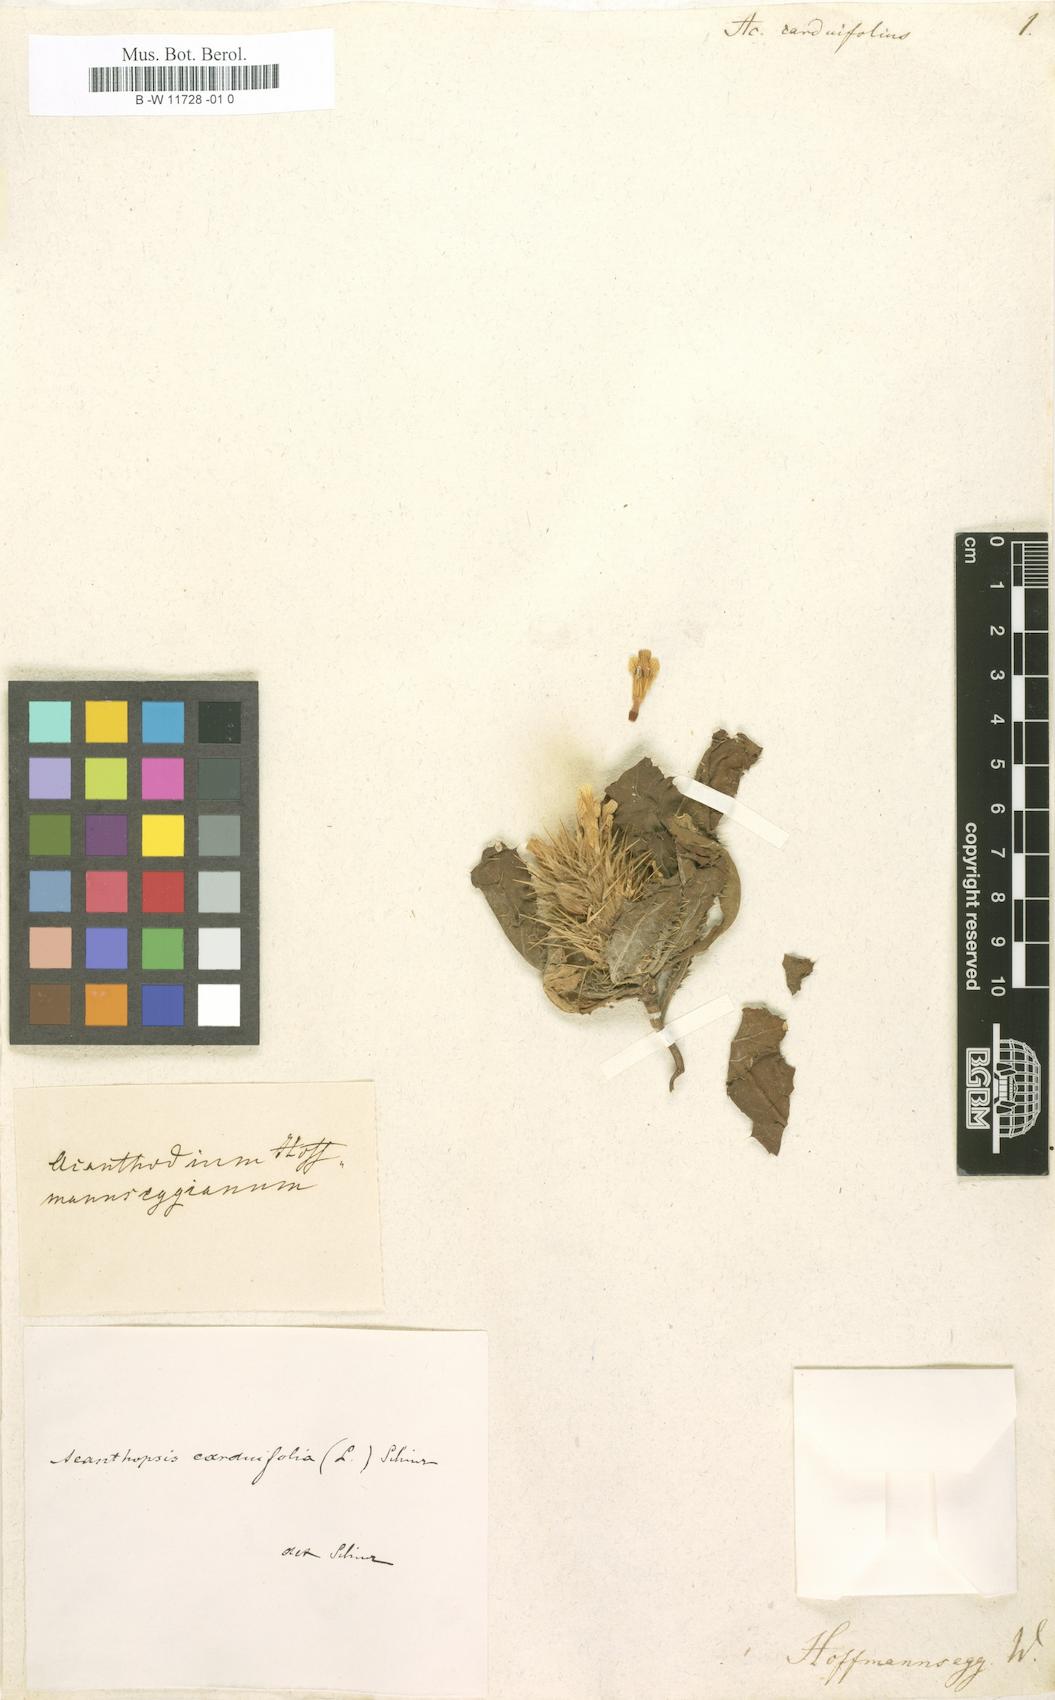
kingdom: Plantae
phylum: Tracheophyta
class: Magnoliopsida
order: Lamiales
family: Acanthaceae
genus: Acanthopsis
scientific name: Acanthopsis carduifolia
